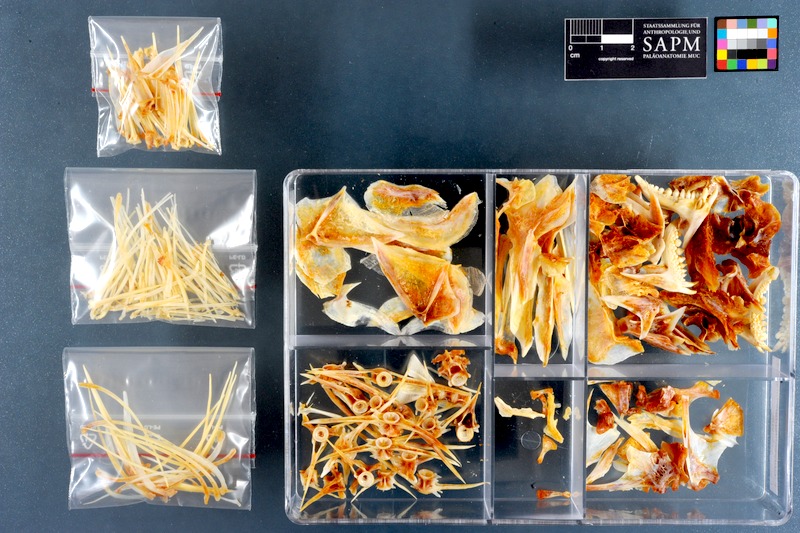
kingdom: Animalia
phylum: Chordata
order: Perciformes
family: Sparidae
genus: Chrysoblephus
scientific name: Chrysoblephus laticeps
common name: Roman seabream
